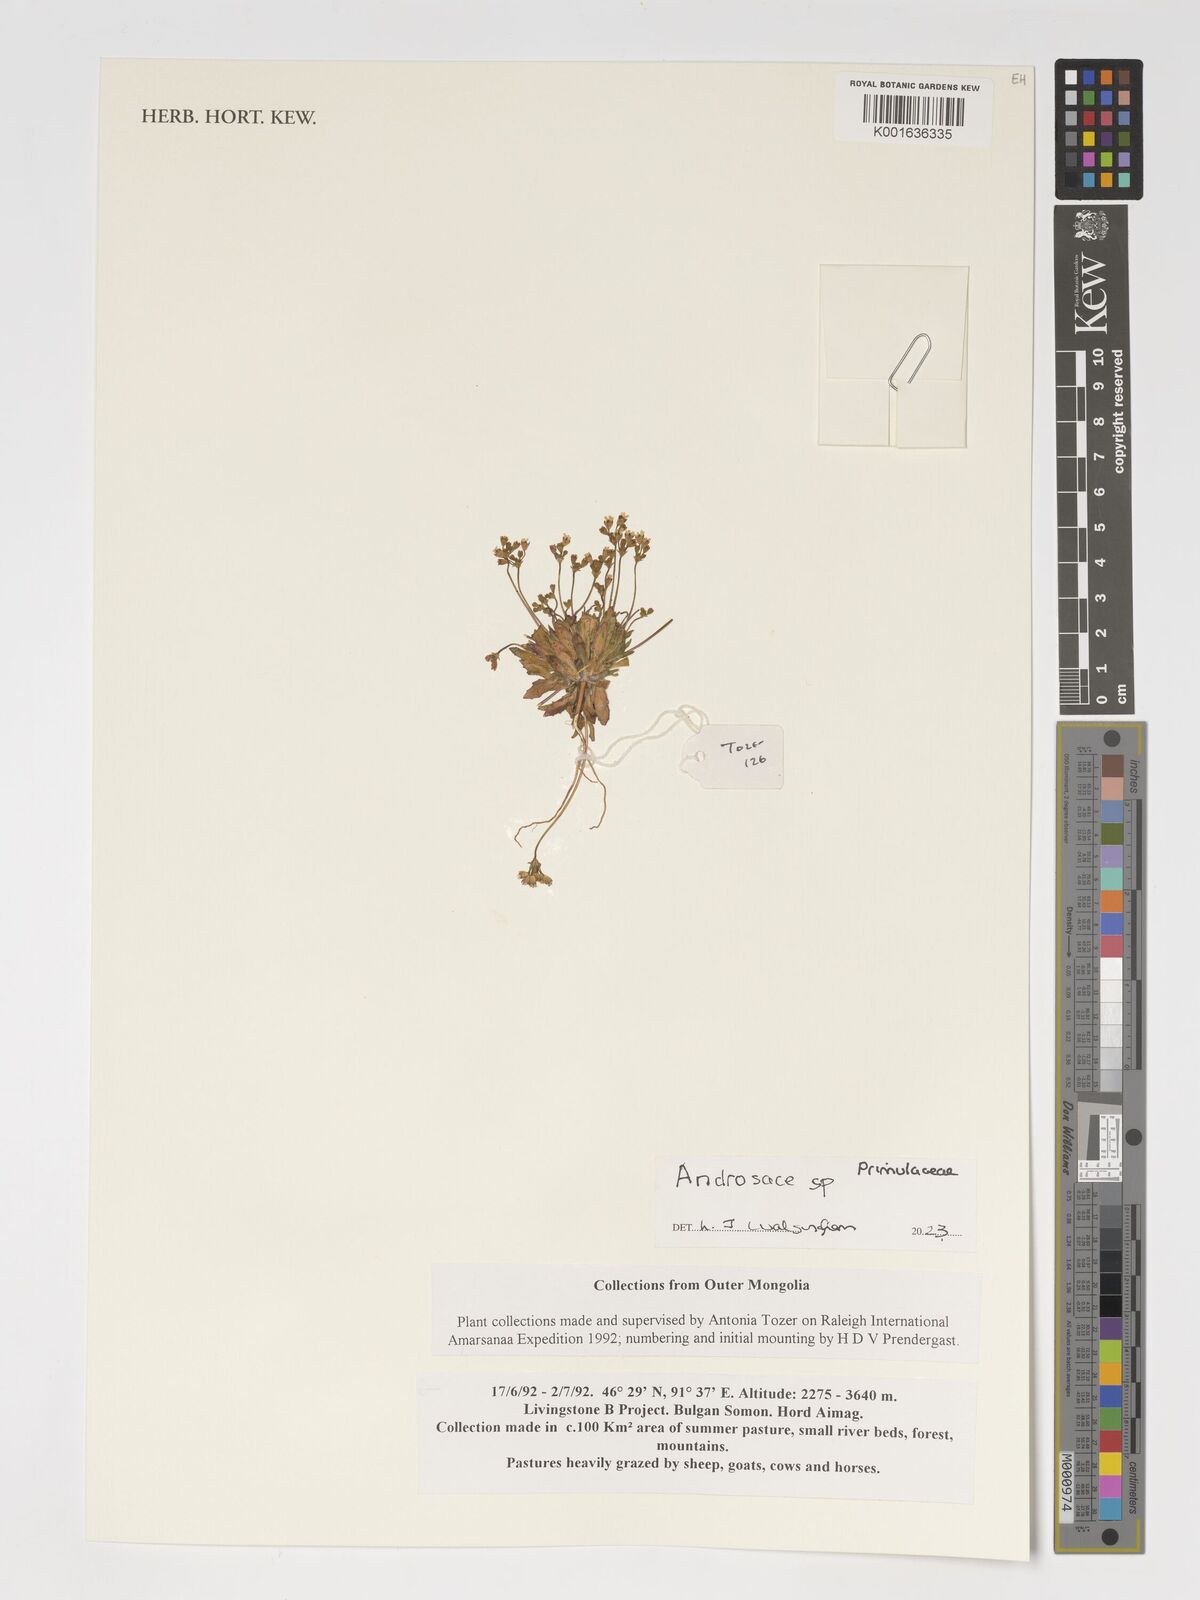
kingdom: Plantae
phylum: Tracheophyta
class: Magnoliopsida
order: Ericales
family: Primulaceae
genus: Androsace
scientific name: Androsace
